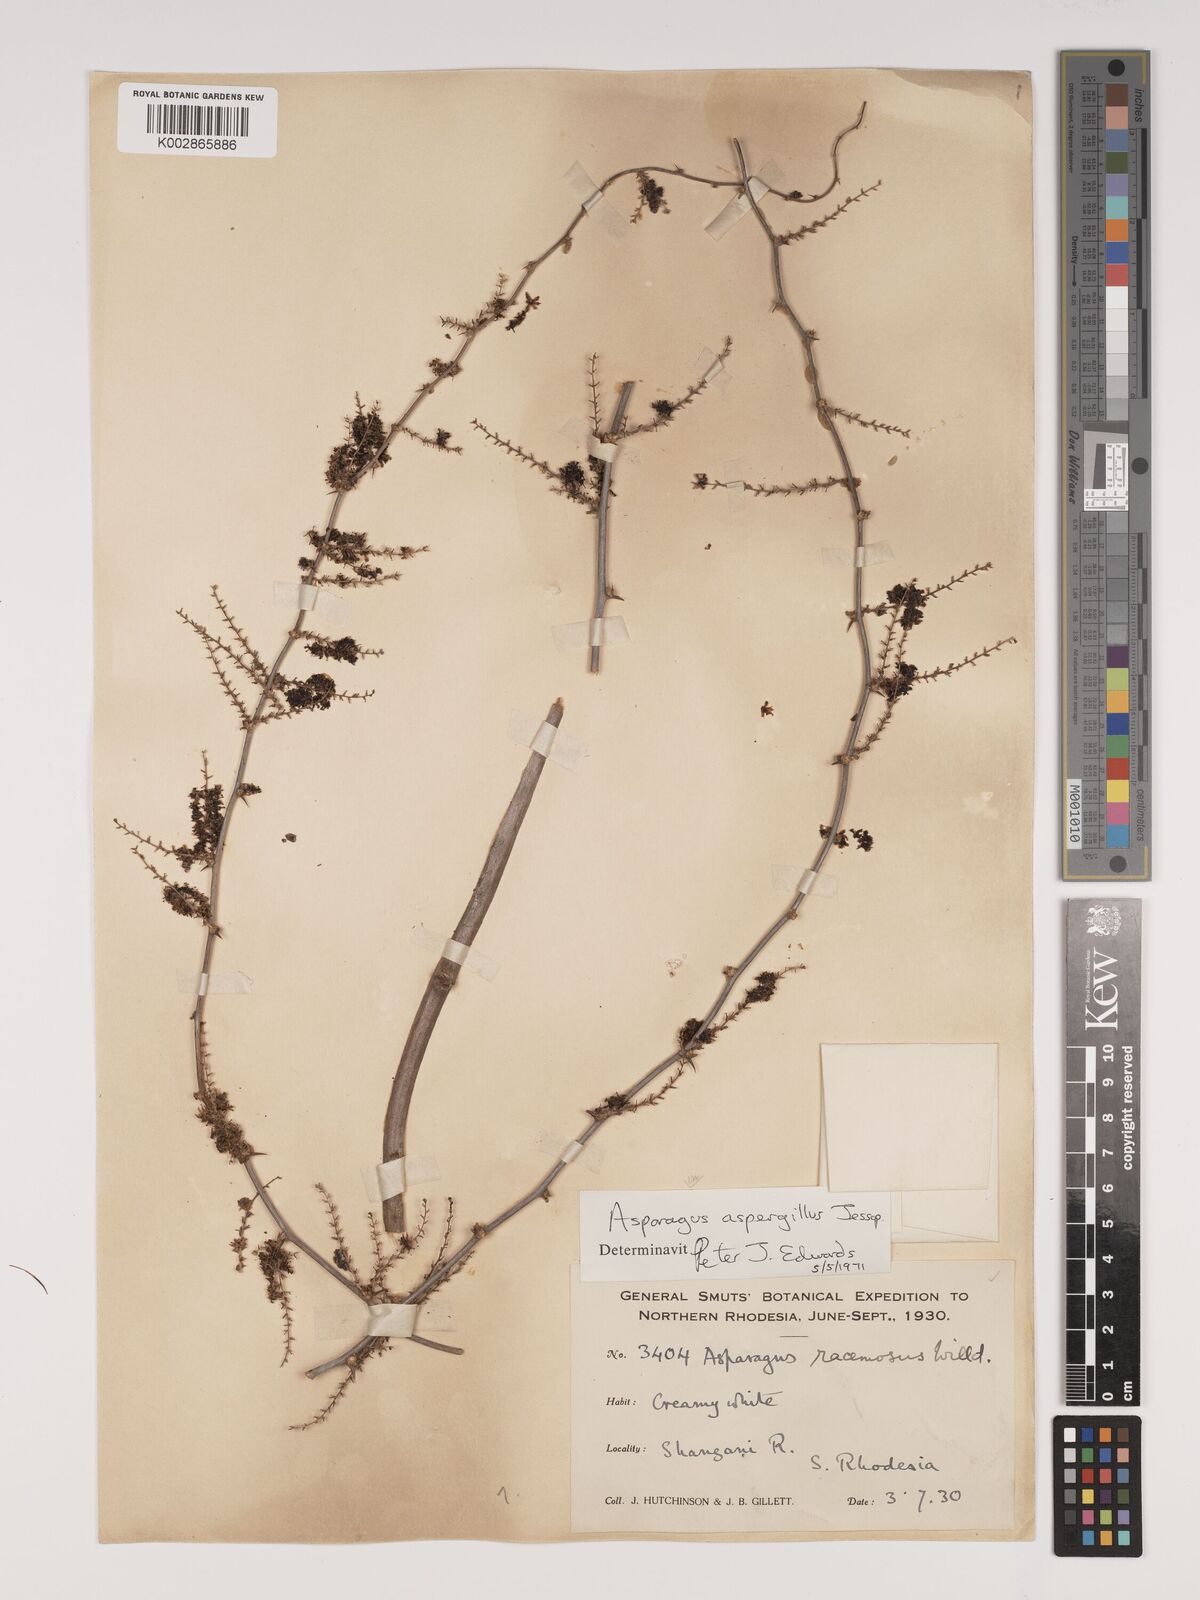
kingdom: Plantae
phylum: Tracheophyta
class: Liliopsida
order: Asparagales
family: Asparagaceae
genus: Asparagus
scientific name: Asparagus aspergillus
